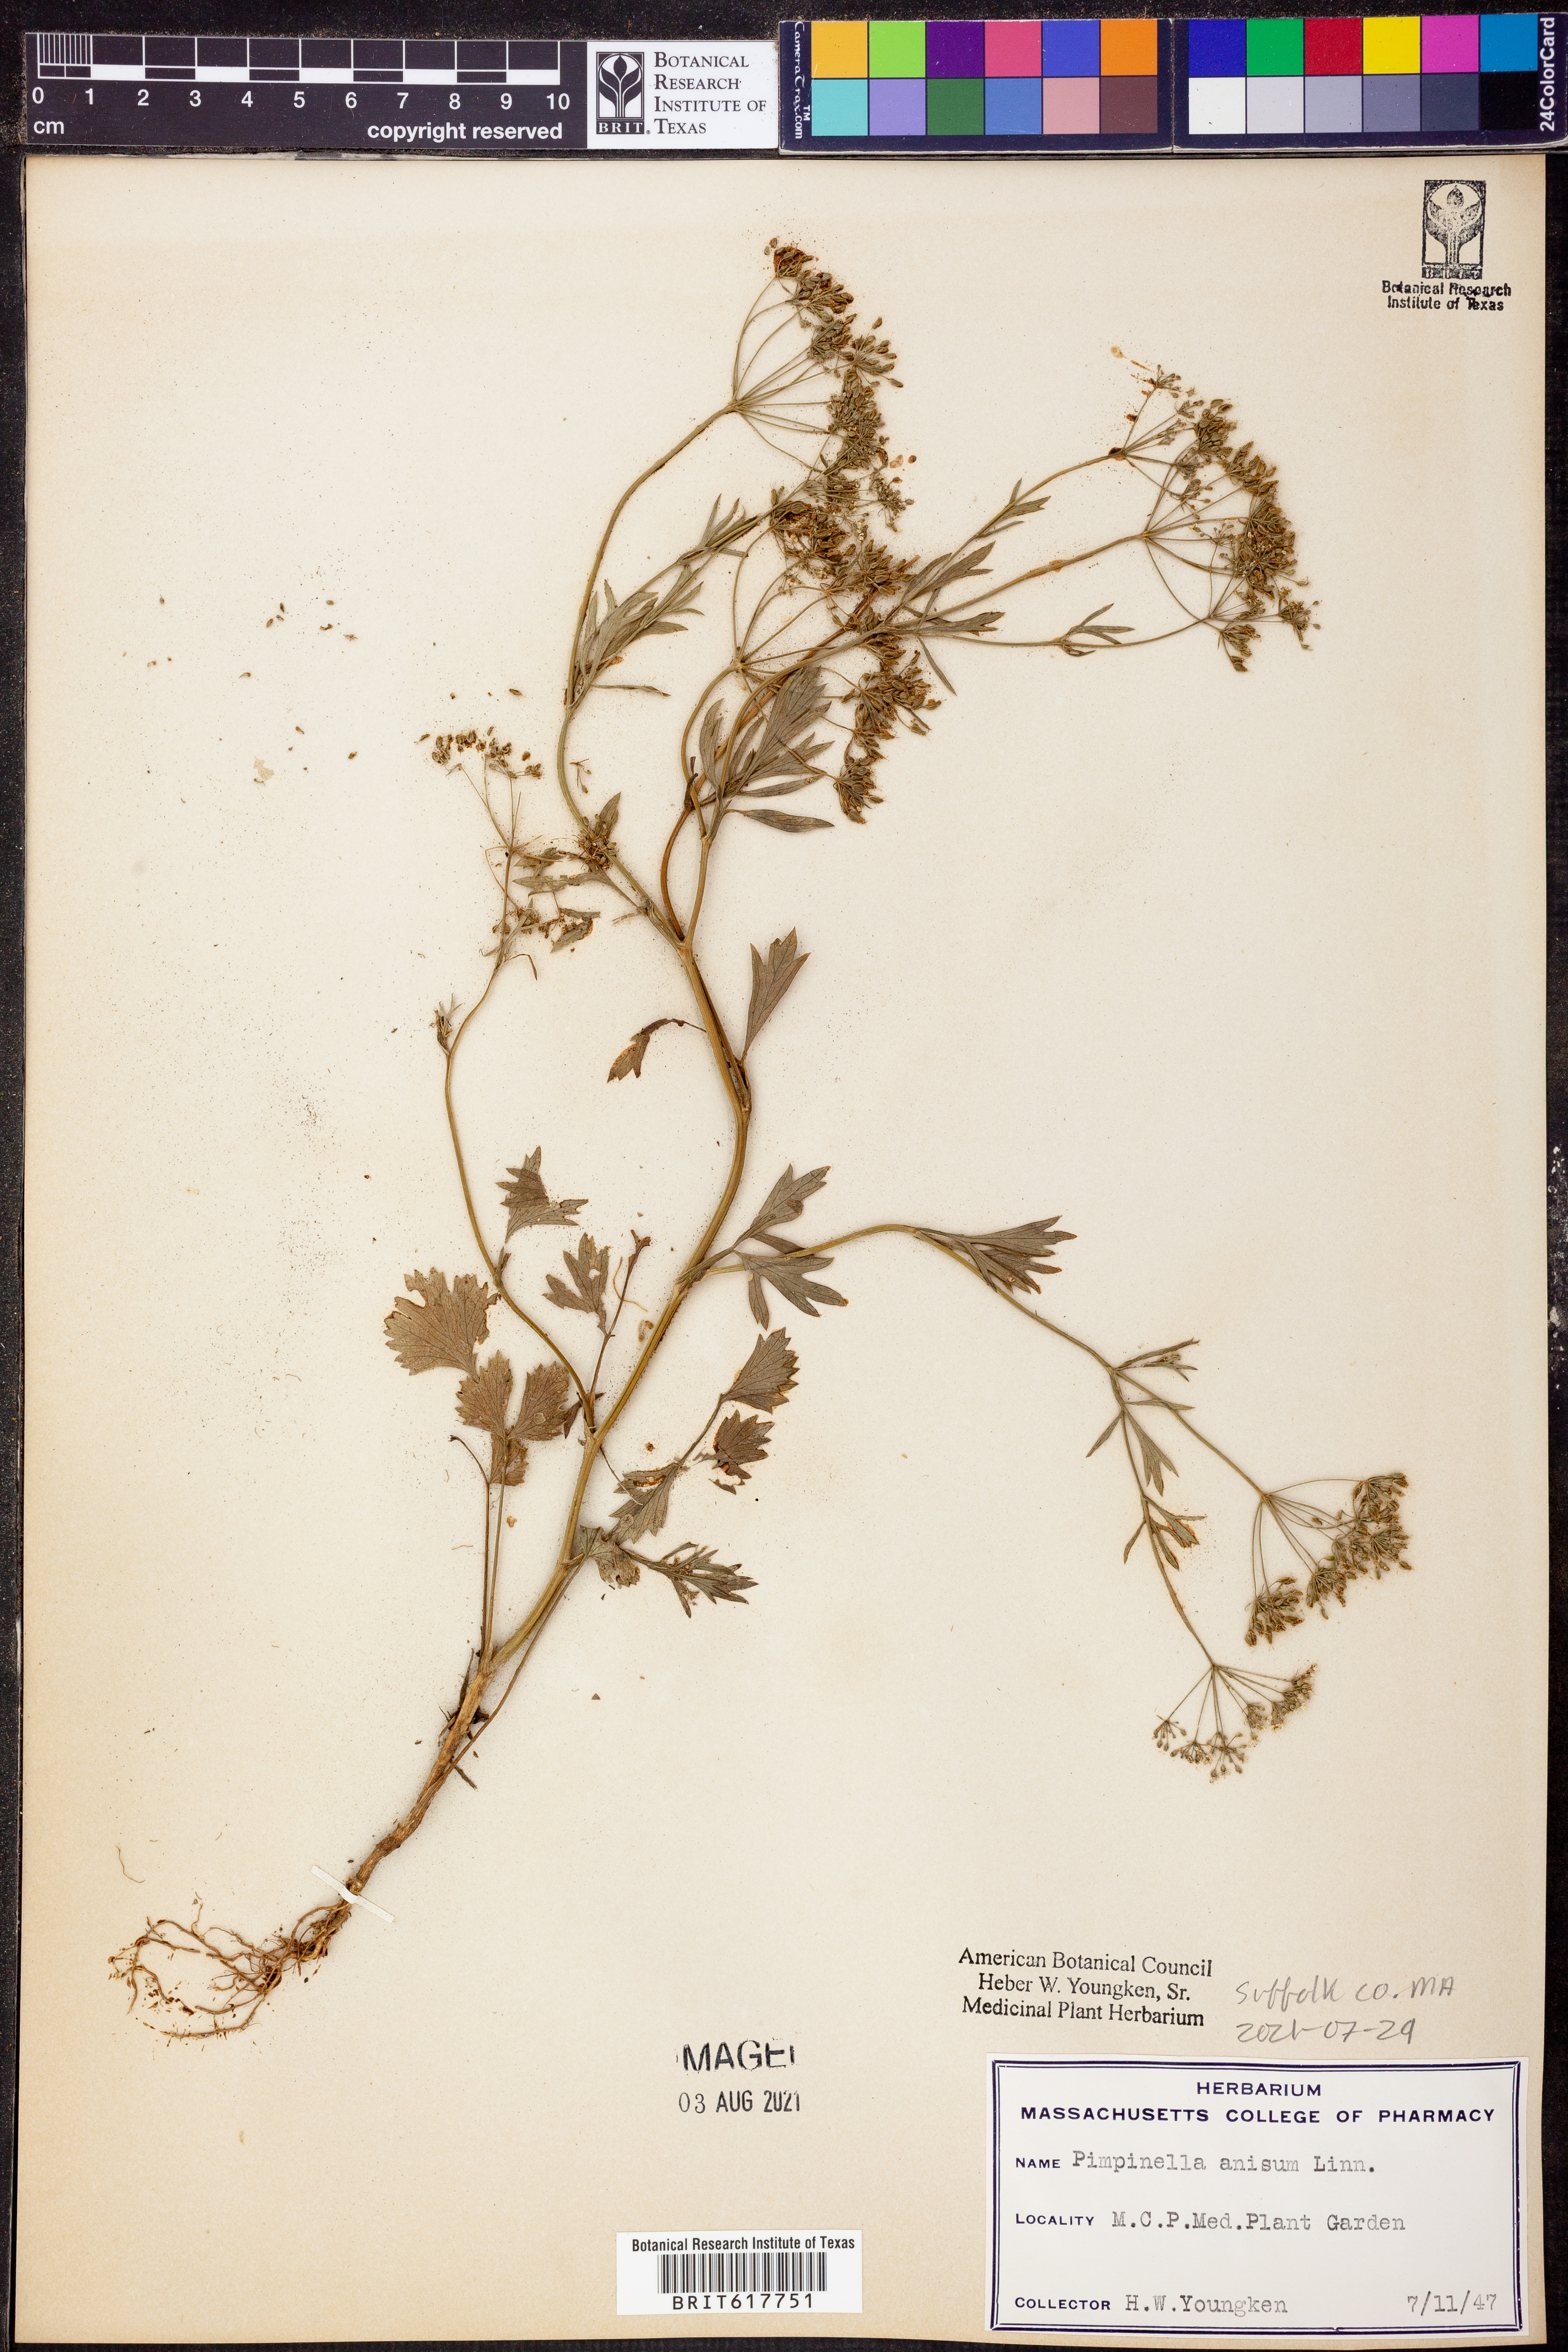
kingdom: Plantae
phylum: Tracheophyta
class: Magnoliopsida
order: Apiales
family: Apiaceae
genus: Pimpinella
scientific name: Pimpinella aromatica
